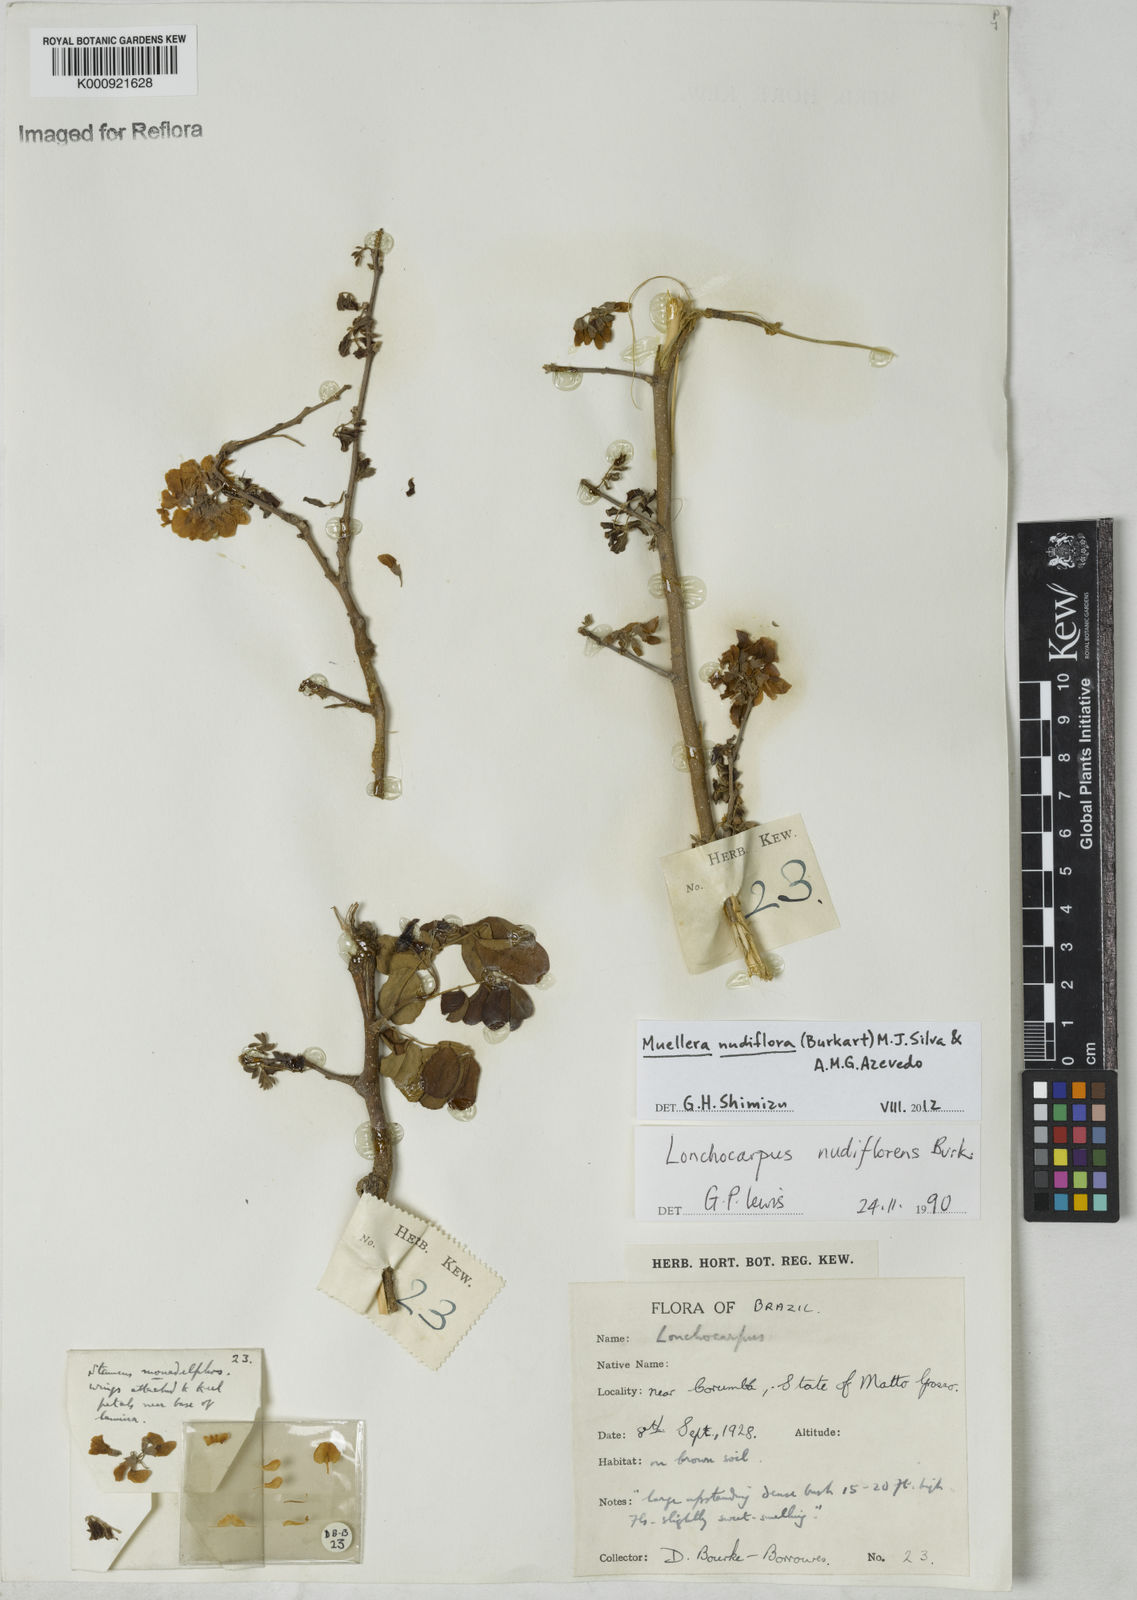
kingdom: Plantae
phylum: Tracheophyta
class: Magnoliopsida
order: Fabales
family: Fabaceae
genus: Muellera
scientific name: Muellera
